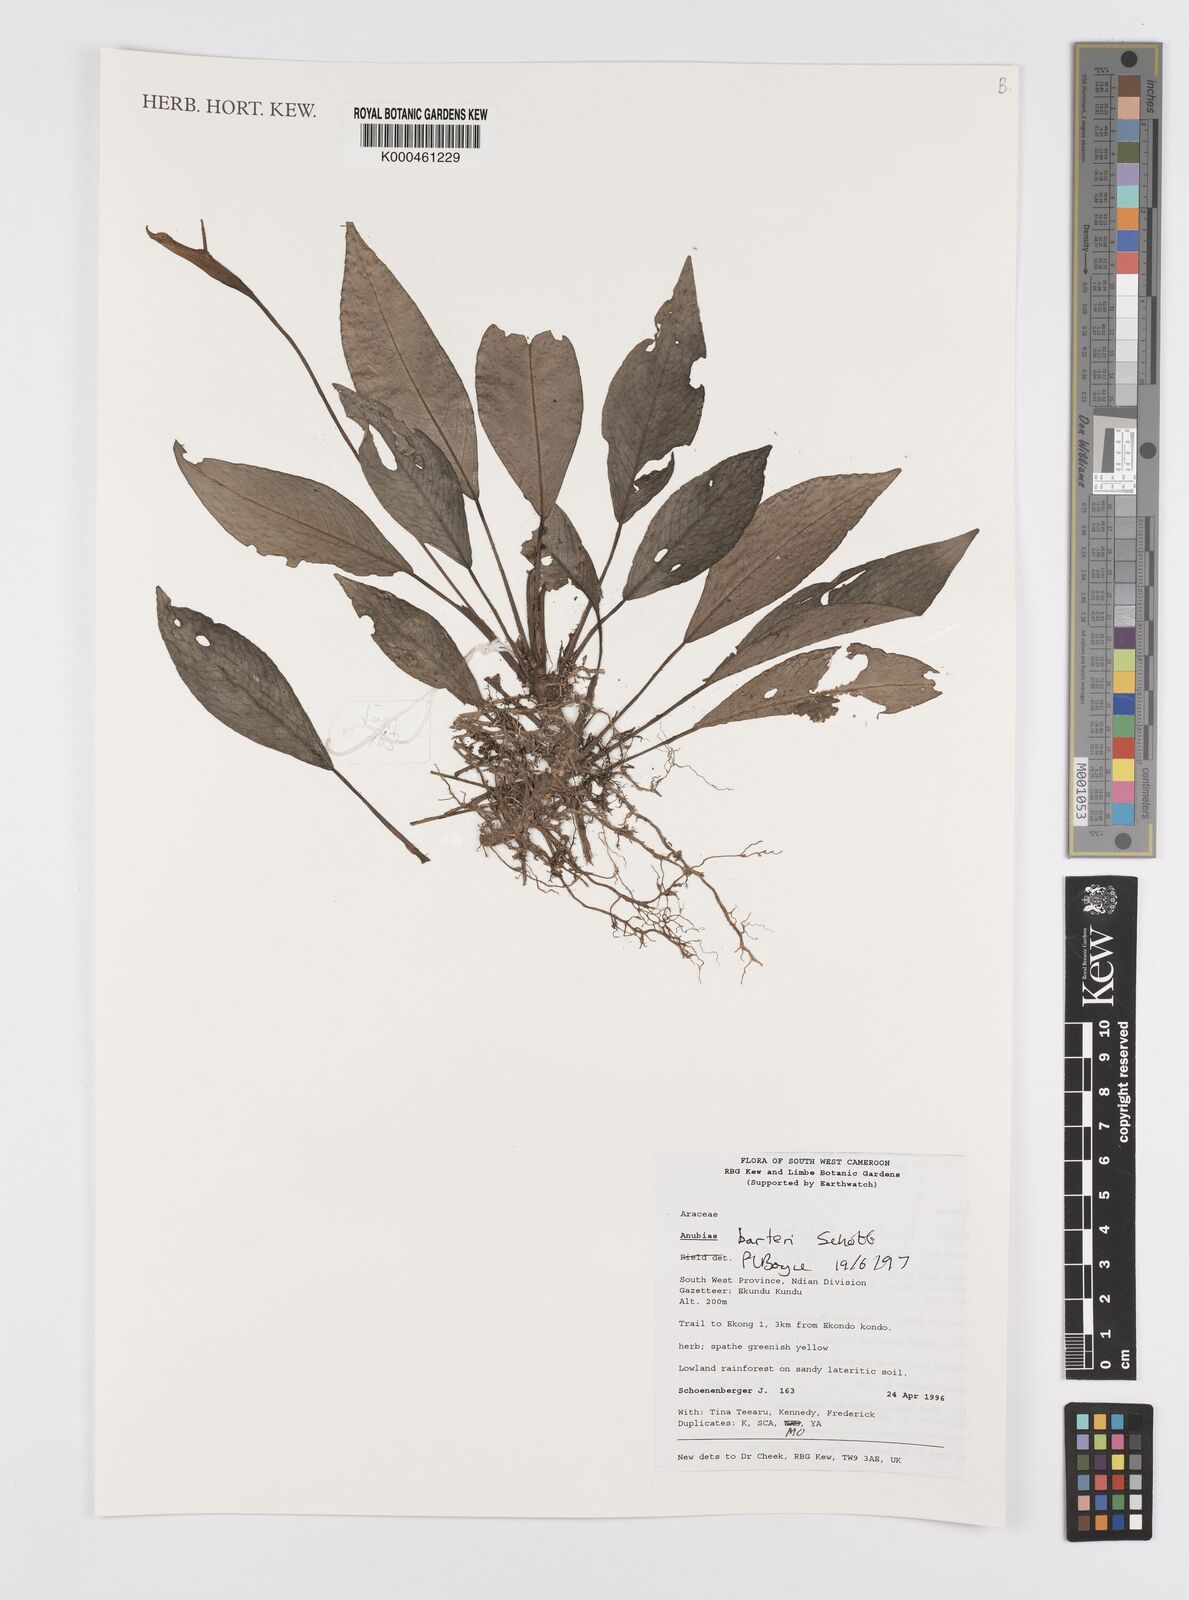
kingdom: Plantae
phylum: Tracheophyta
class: Liliopsida
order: Alismatales
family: Araceae
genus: Anubias
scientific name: Anubias barteri
